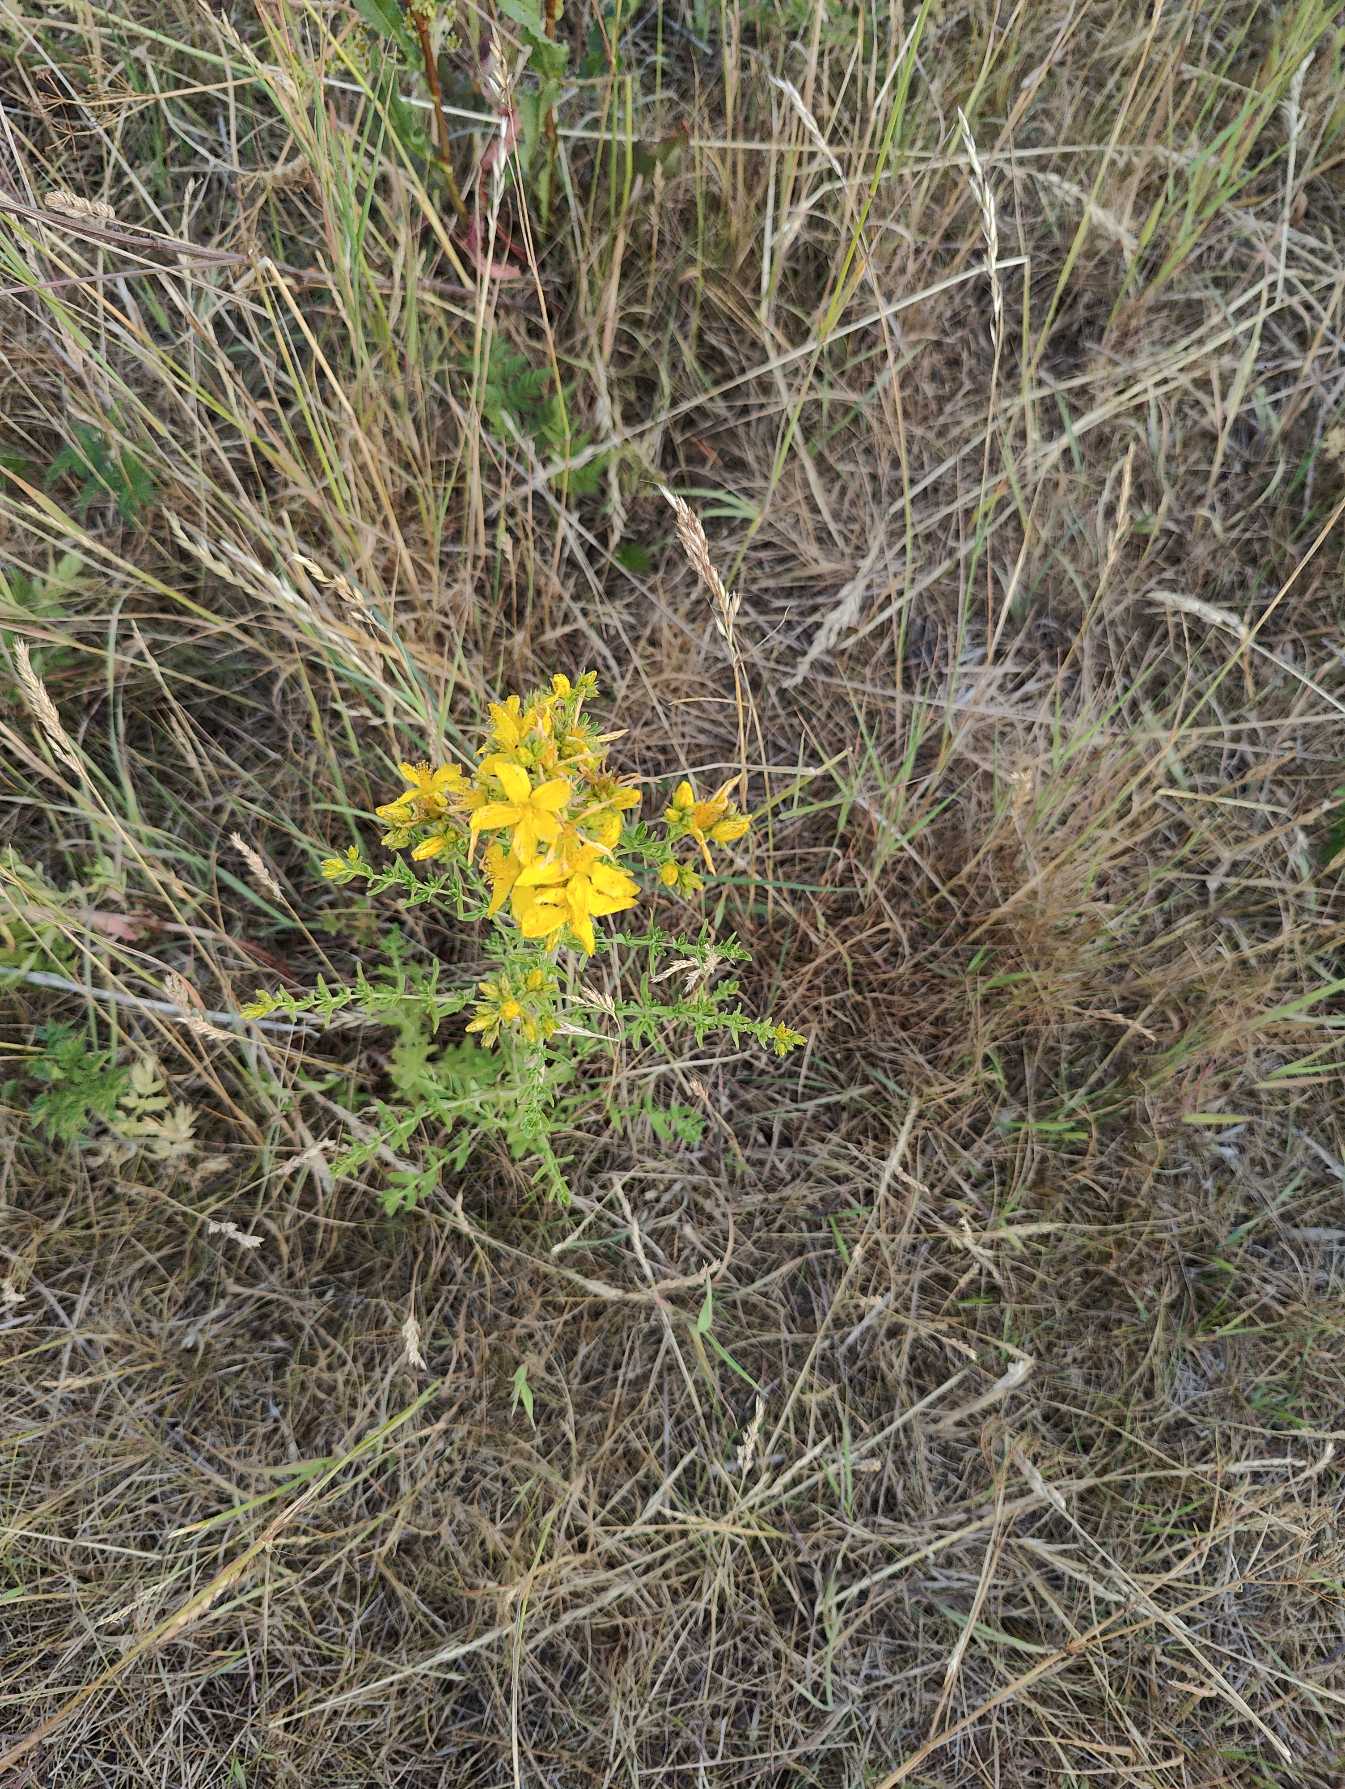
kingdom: Plantae
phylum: Tracheophyta
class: Magnoliopsida
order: Malpighiales
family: Hypericaceae
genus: Hypericum
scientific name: Hypericum perforatum
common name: Prikbladet perikon
